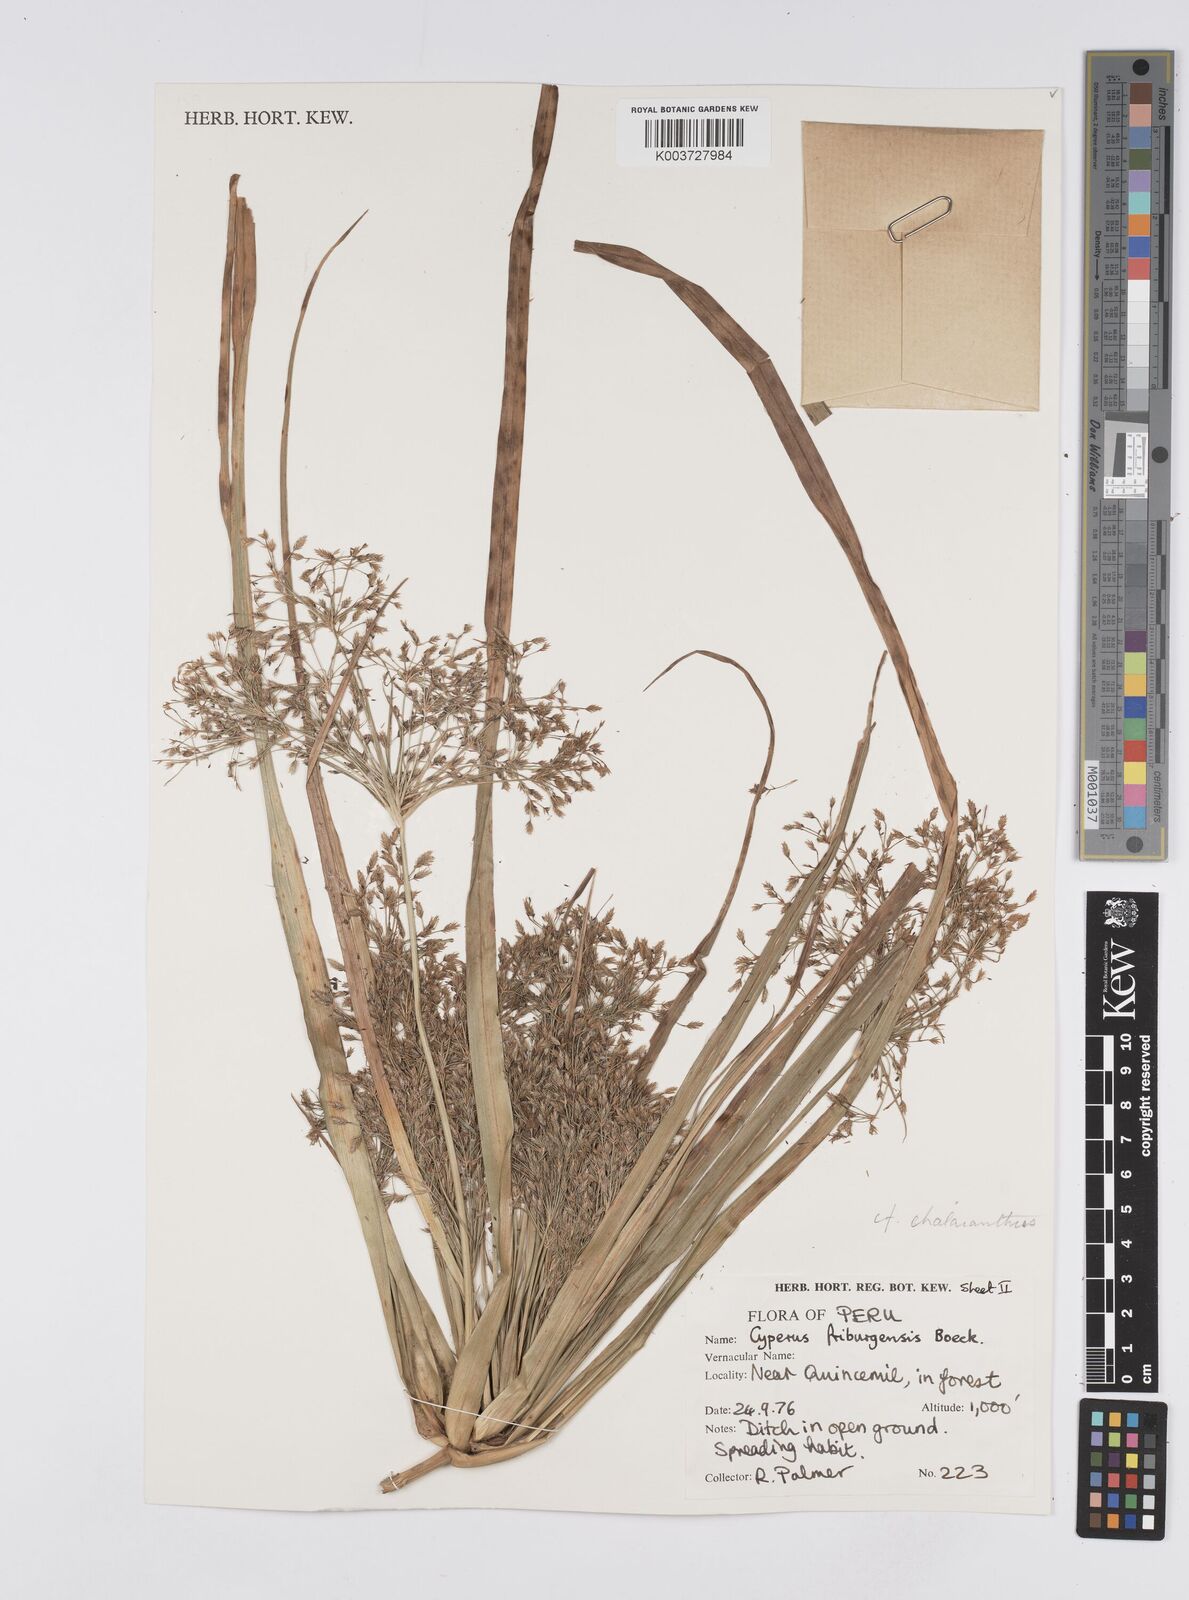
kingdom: Plantae
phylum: Tracheophyta
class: Liliopsida
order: Poales
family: Cyperaceae
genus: Cyperus
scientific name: Cyperus friburgensis
